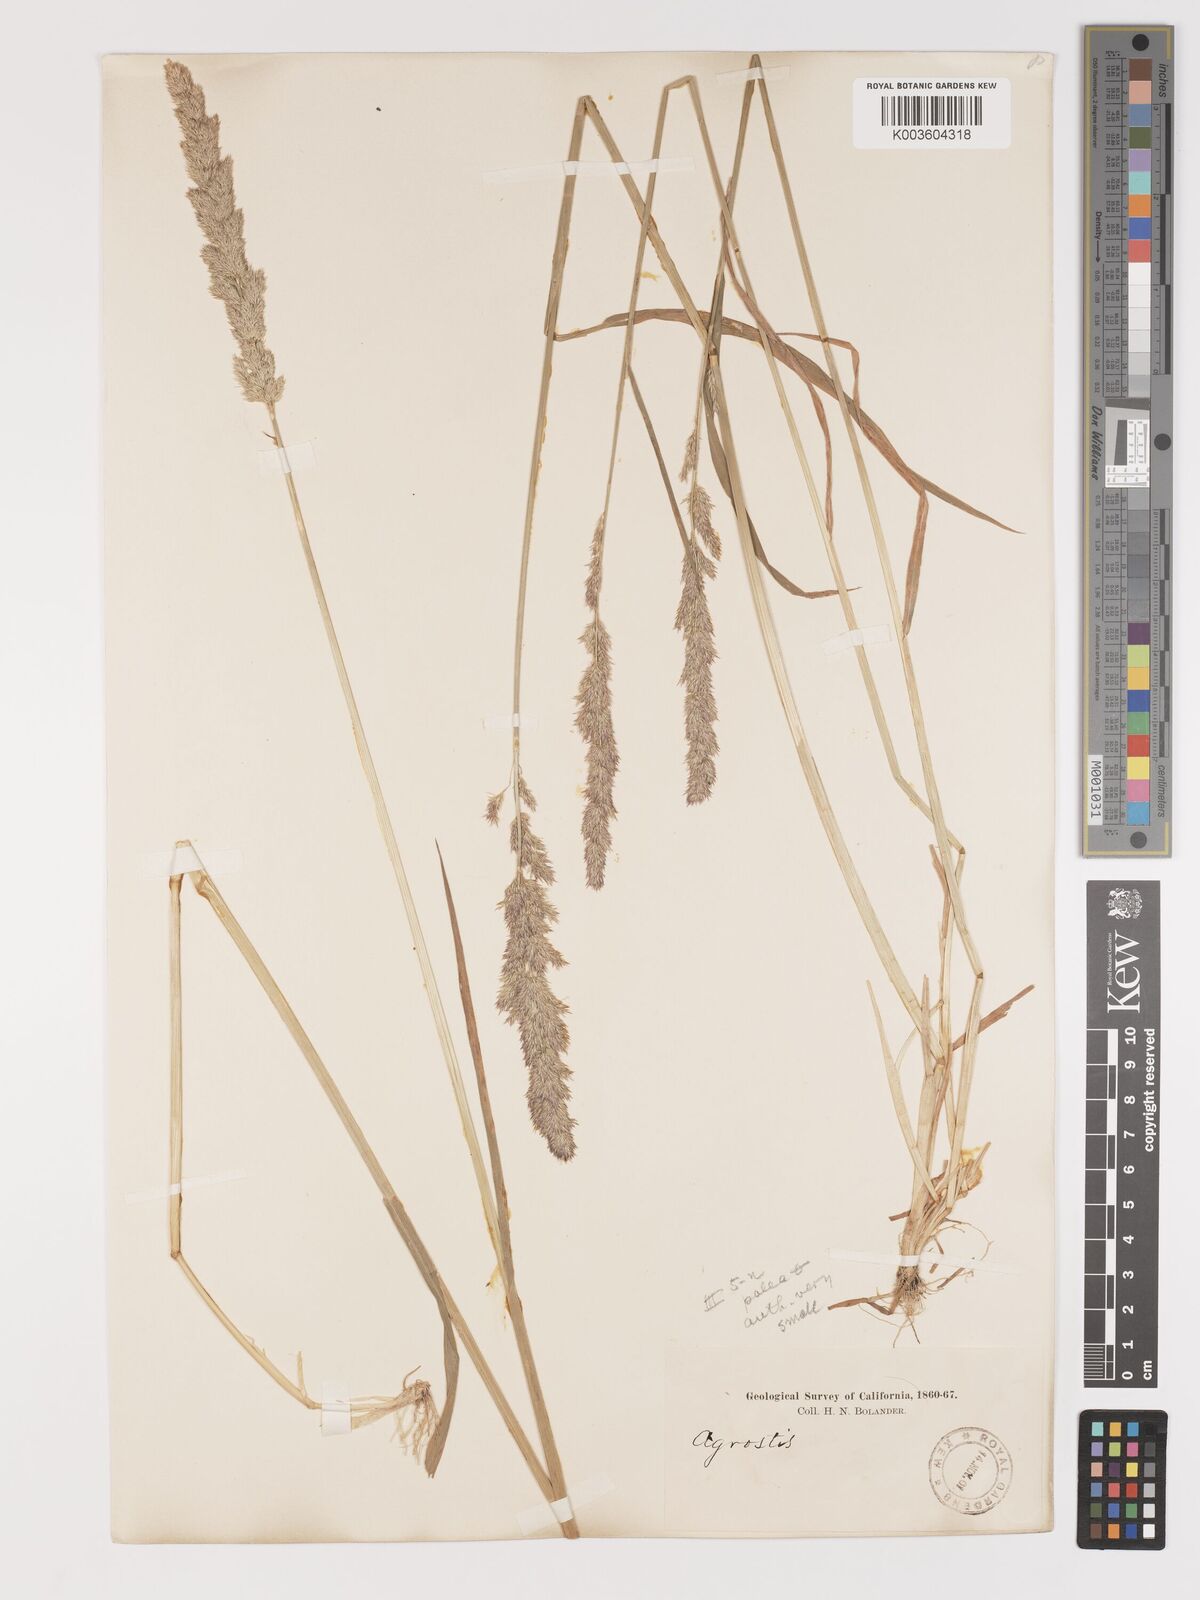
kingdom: Plantae
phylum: Tracheophyta
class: Liliopsida
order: Poales
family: Poaceae
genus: Agrostis
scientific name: Agrostis exarata
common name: Spike bent
